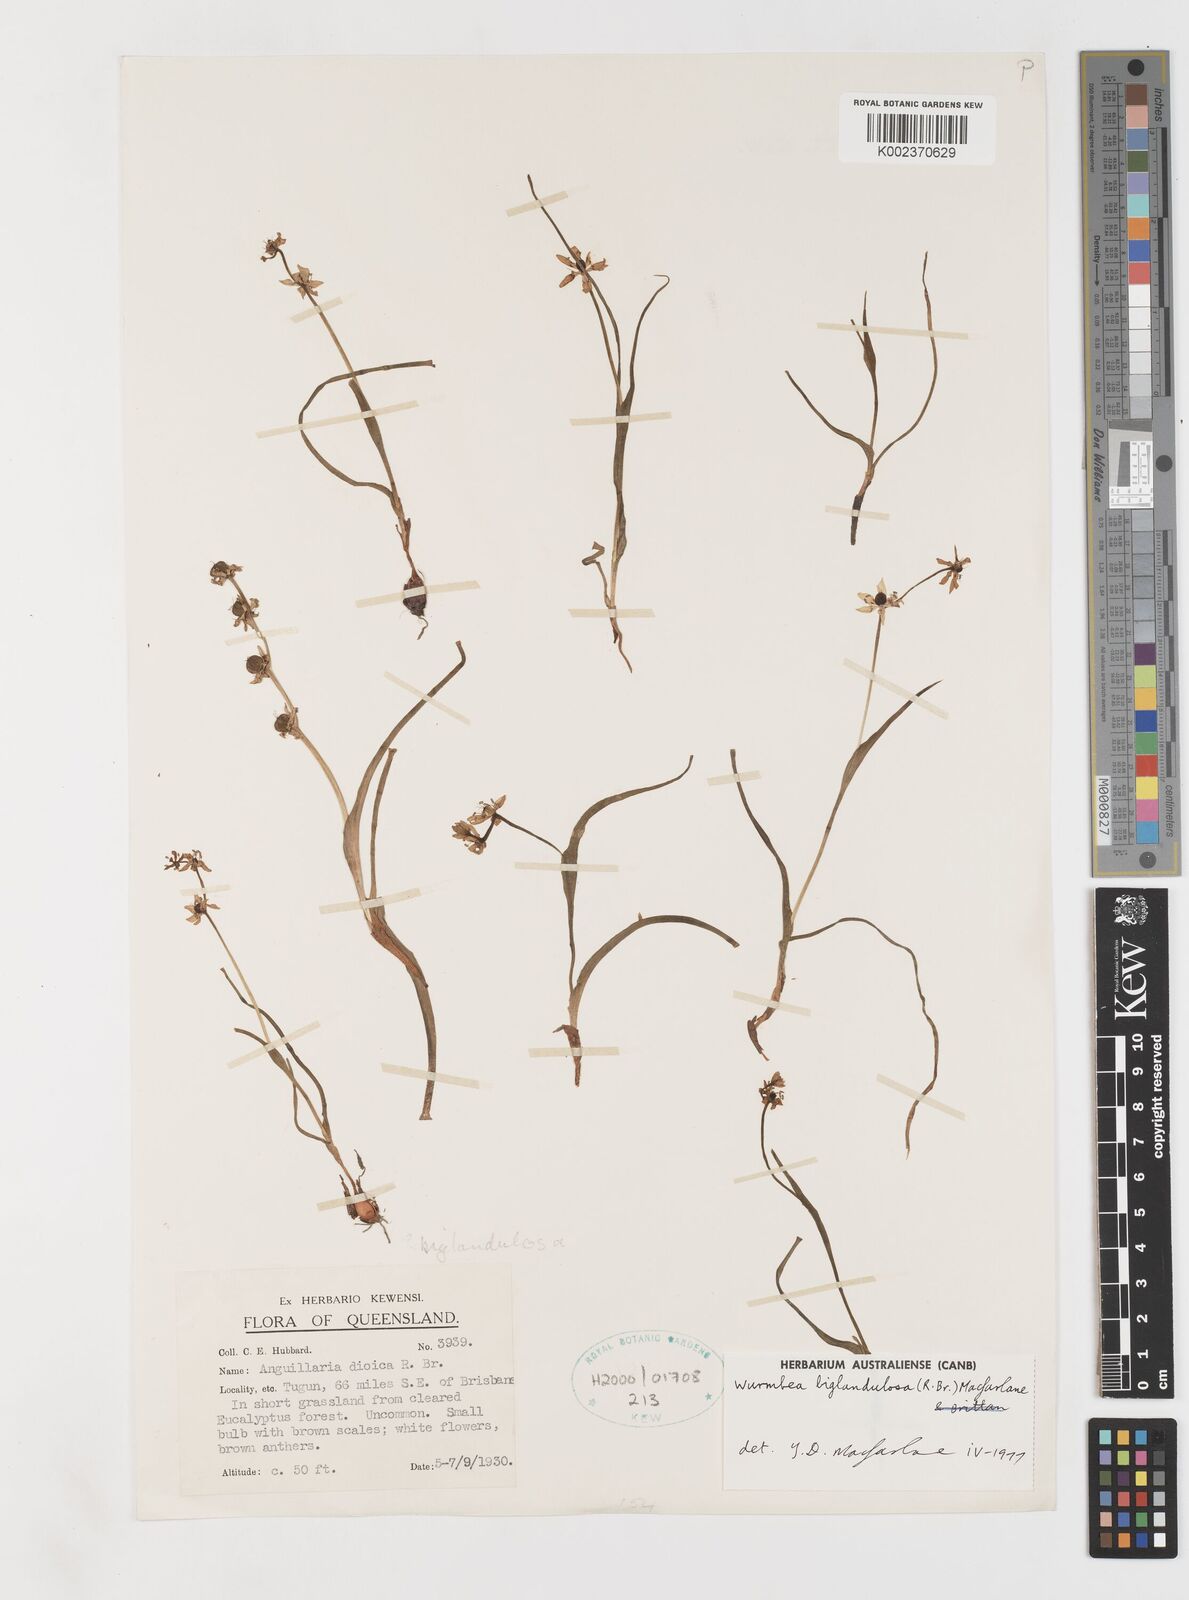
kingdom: Plantae
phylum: Tracheophyta
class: Liliopsida
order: Liliales
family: Colchicaceae
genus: Wurmbea
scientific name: Wurmbea biglandulosa
